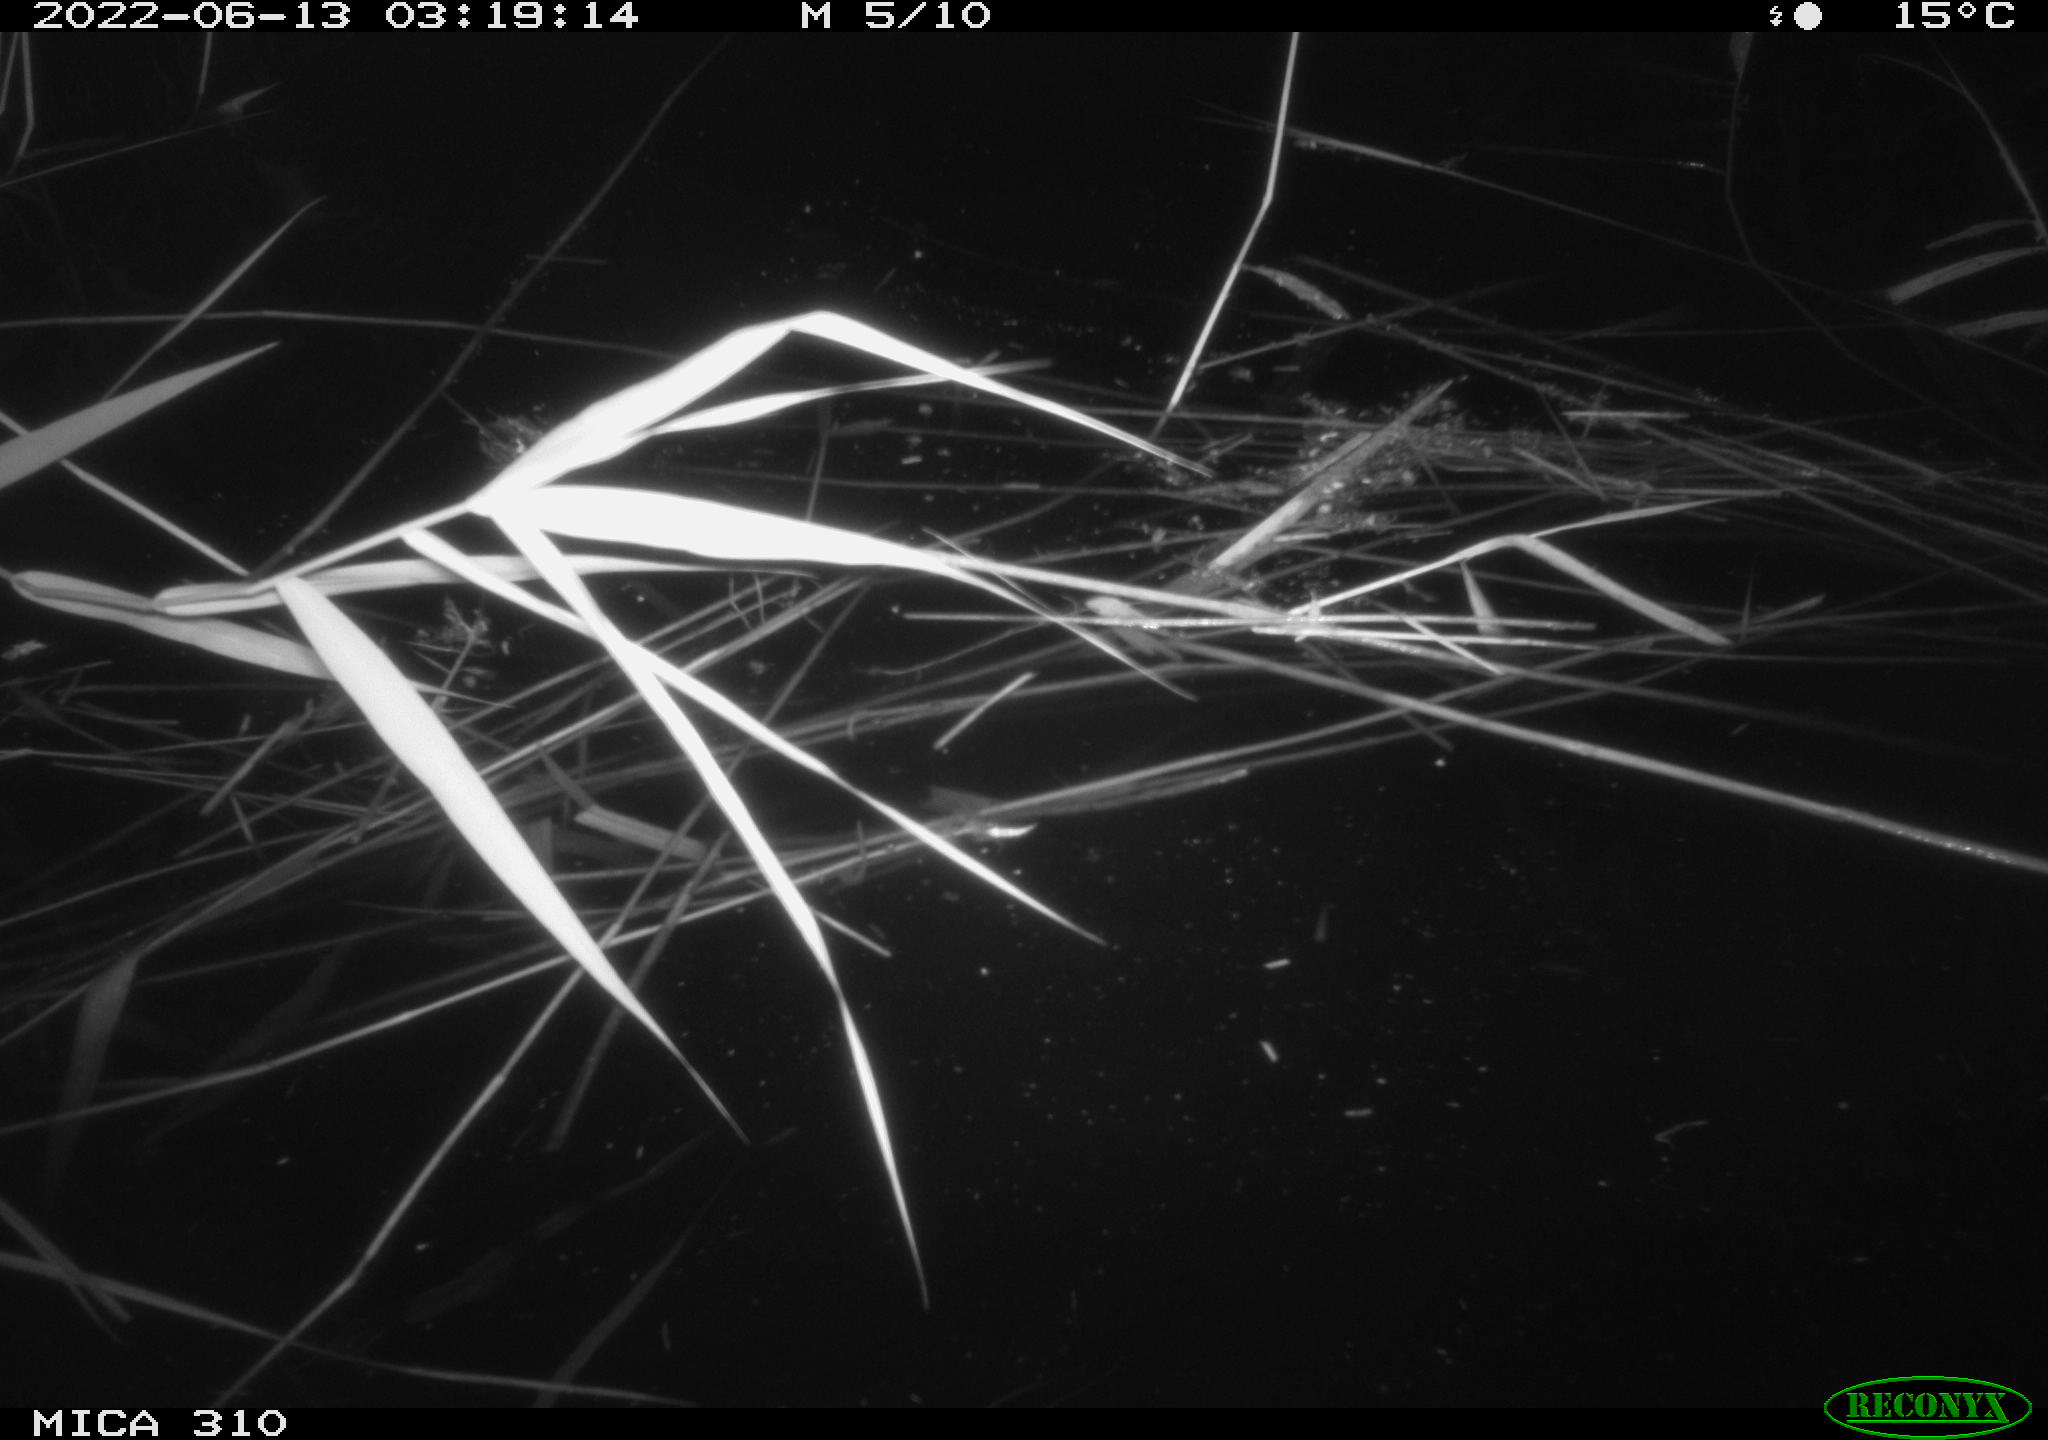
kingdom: Animalia
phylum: Chordata
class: Aves
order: Anseriformes
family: Anatidae
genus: Anas
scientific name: Anas platyrhynchos
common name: Mallard
